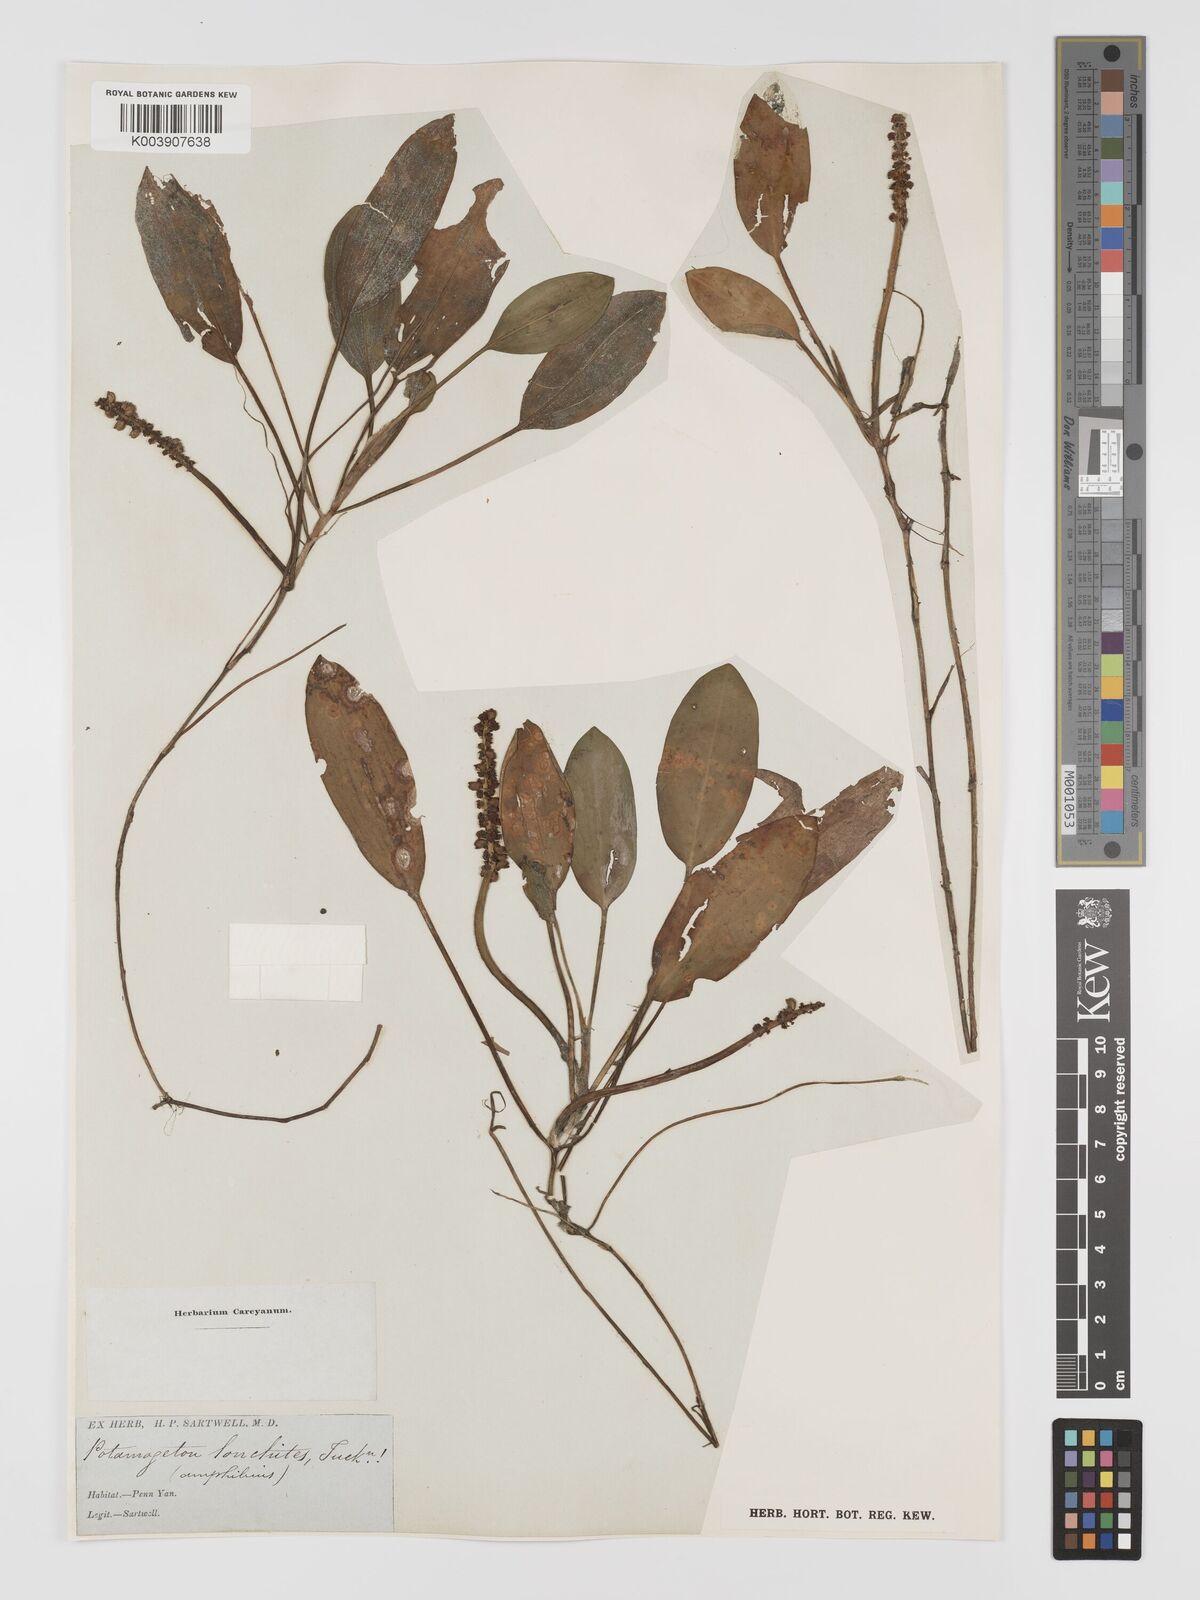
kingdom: Plantae
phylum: Tracheophyta
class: Liliopsida
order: Alismatales
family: Potamogetonaceae
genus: Potamogeton
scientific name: Potamogeton nodosus
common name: Loddon pondweed
